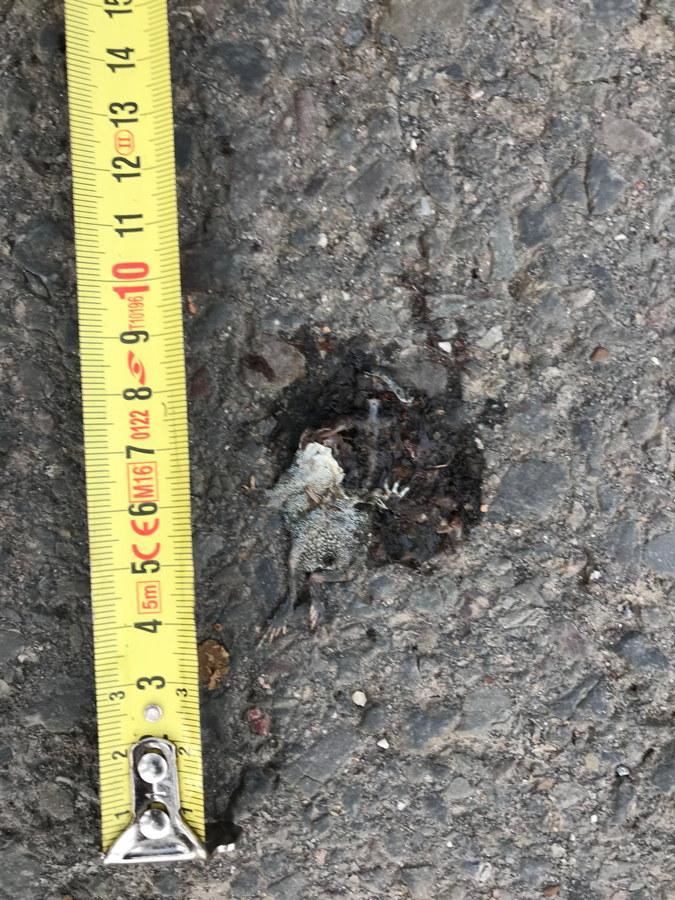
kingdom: Animalia
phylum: Chordata
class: Amphibia
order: Anura
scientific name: Anura
